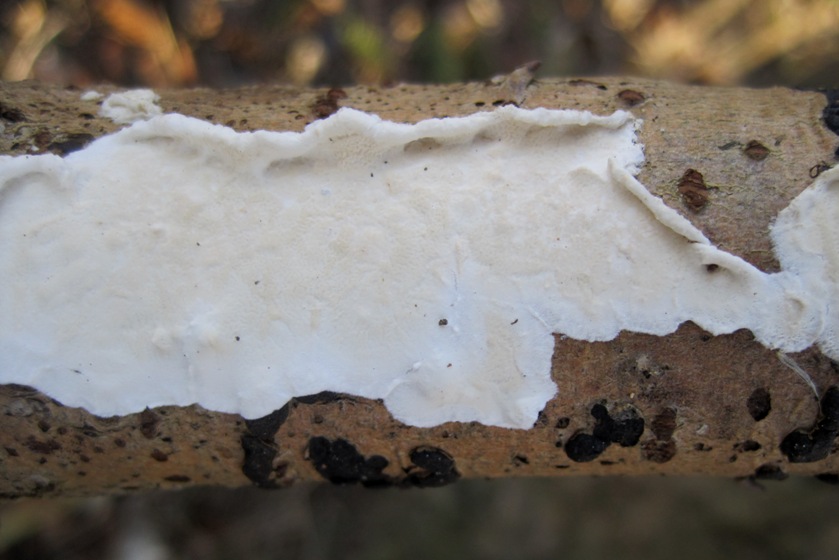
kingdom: Fungi
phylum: Basidiomycota
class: Agaricomycetes
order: Polyporales
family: Irpicaceae
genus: Byssomerulius
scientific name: Byssomerulius corium
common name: læder-åresvamp
